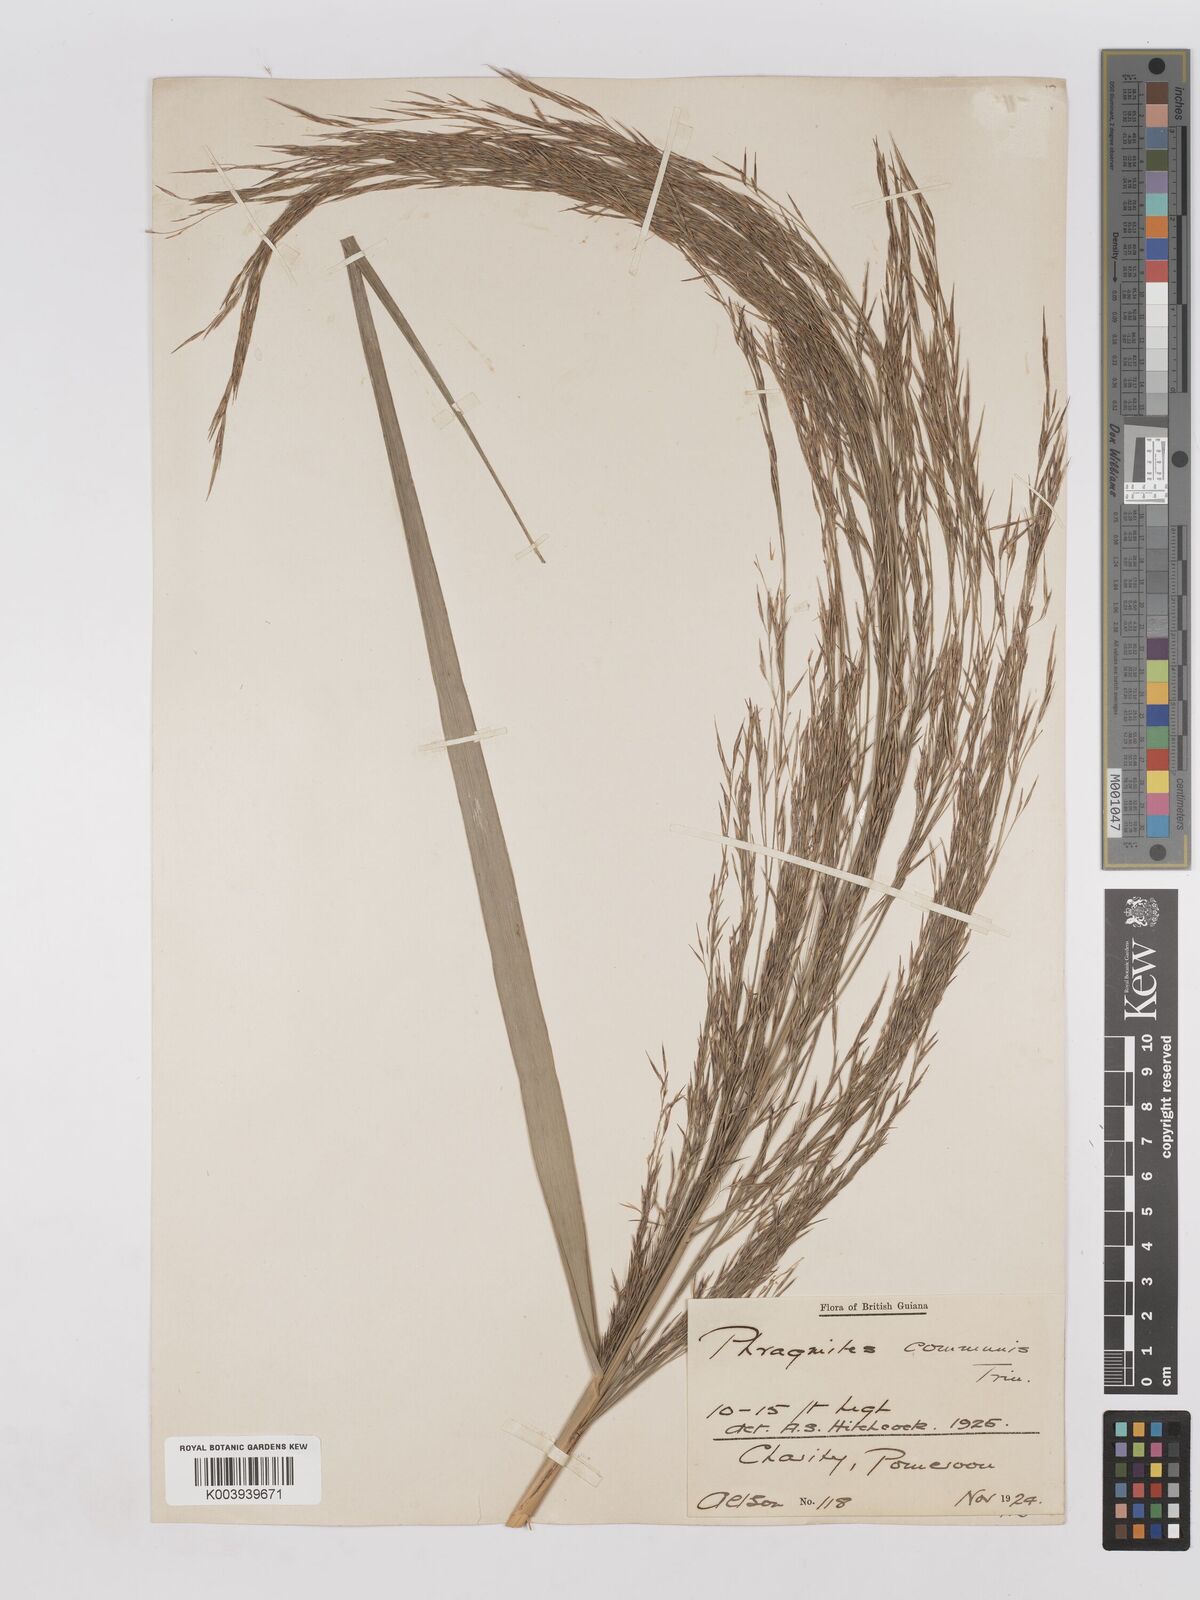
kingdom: Plantae
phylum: Tracheophyta
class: Liliopsida
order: Poales
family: Poaceae
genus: Phragmites
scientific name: Phragmites australis
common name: Common reed
